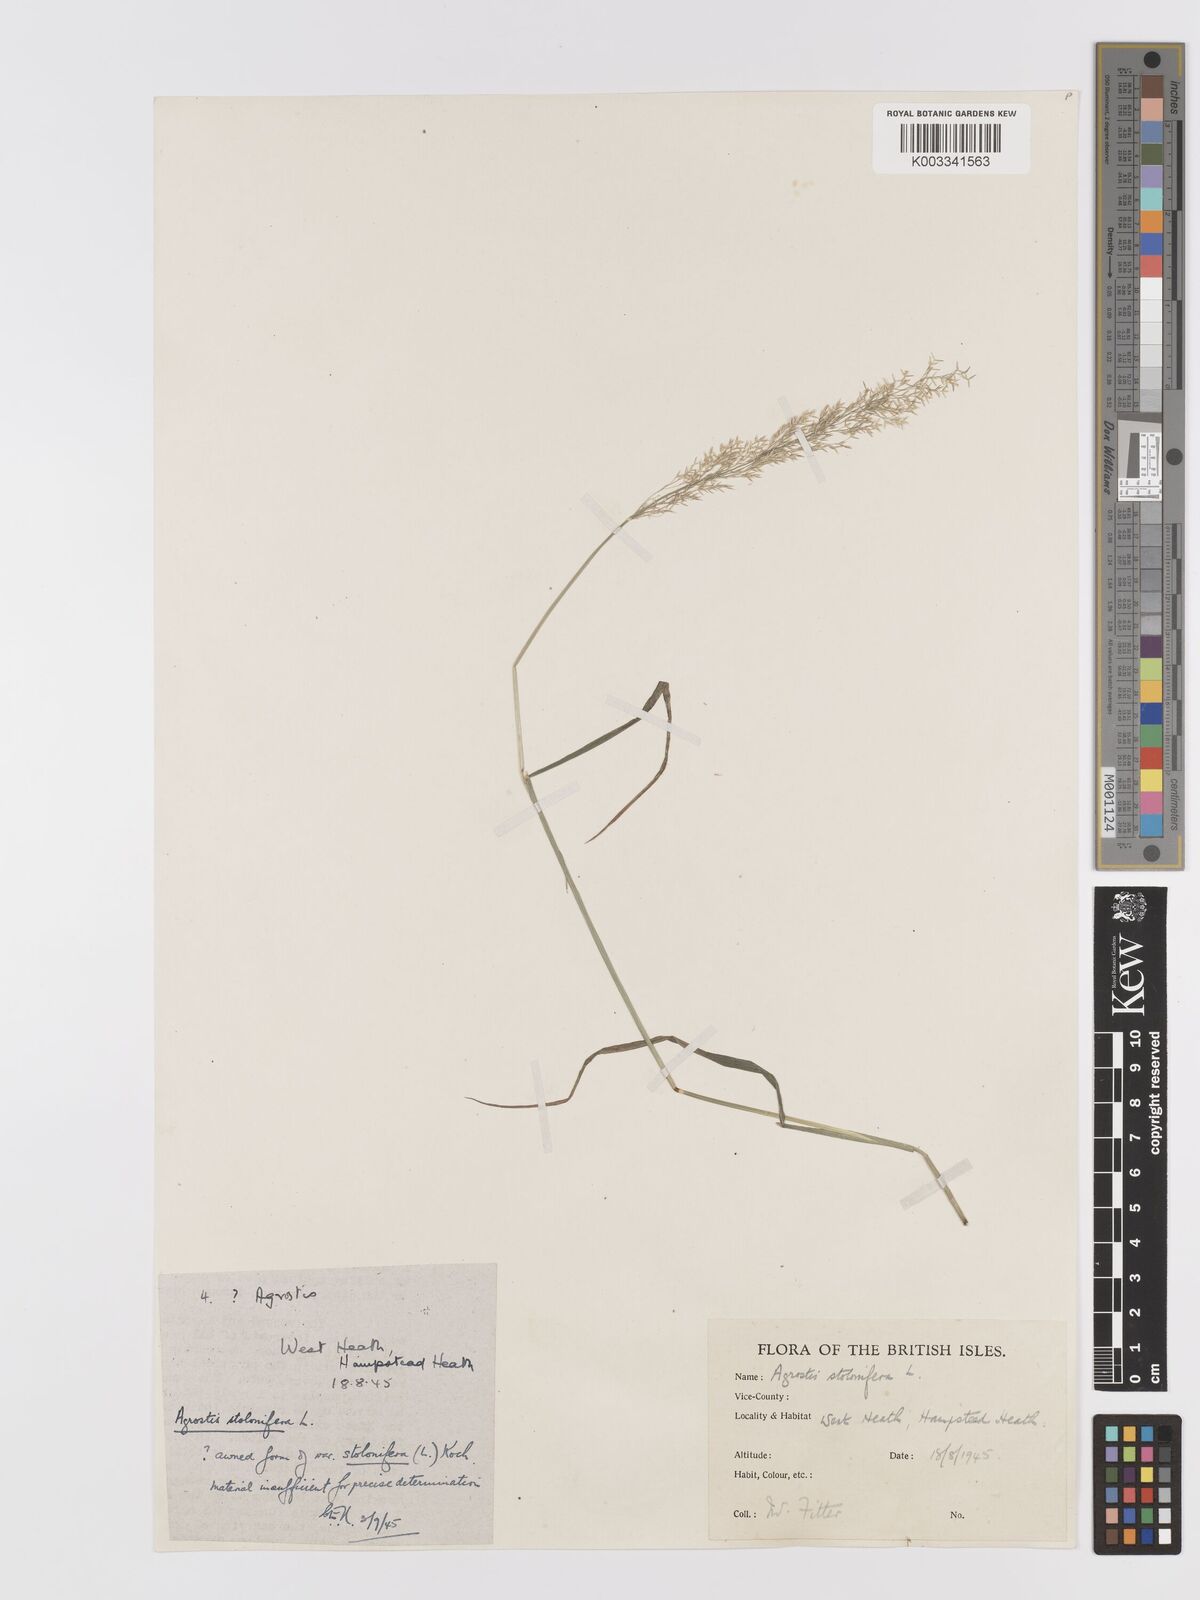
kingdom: Plantae
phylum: Tracheophyta
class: Liliopsida
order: Poales
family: Poaceae
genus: Agrostis
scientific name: Agrostis stolonifera
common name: Creeping bentgrass
